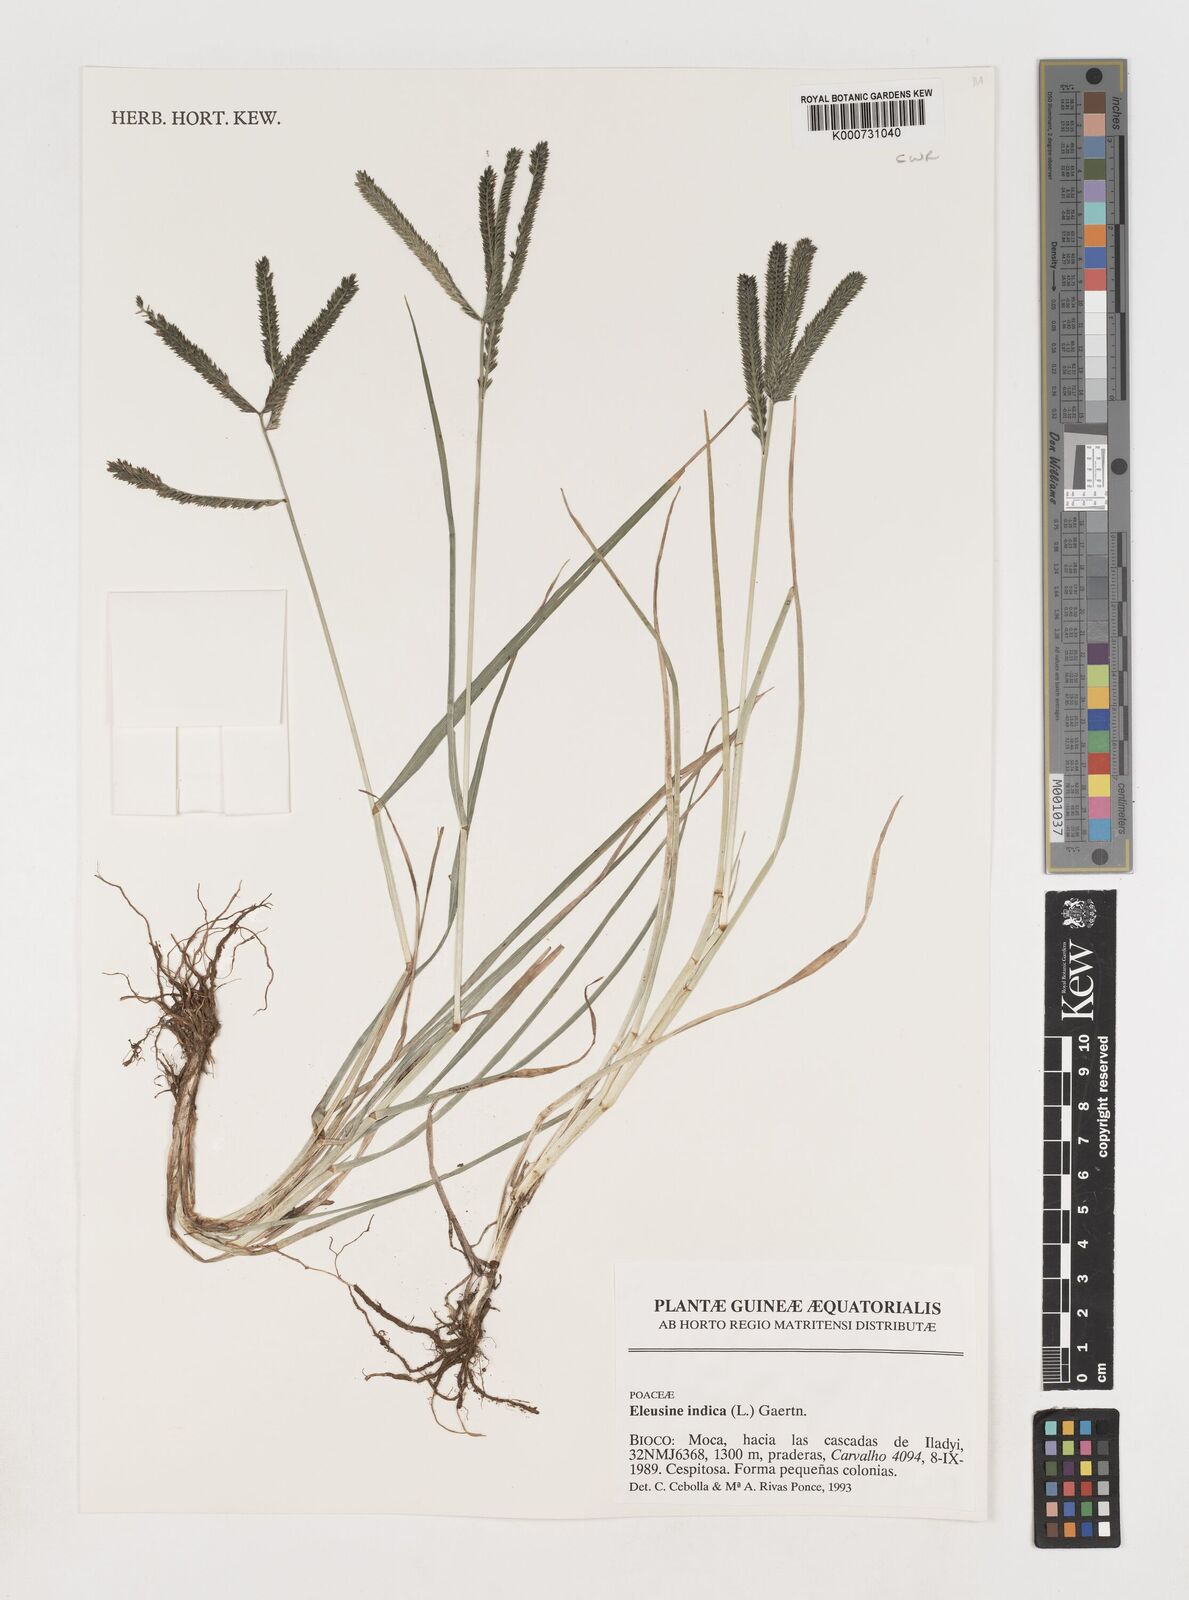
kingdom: Plantae
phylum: Tracheophyta
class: Liliopsida
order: Poales
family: Poaceae
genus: Eleusine
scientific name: Eleusine indica
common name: Yard-grass
